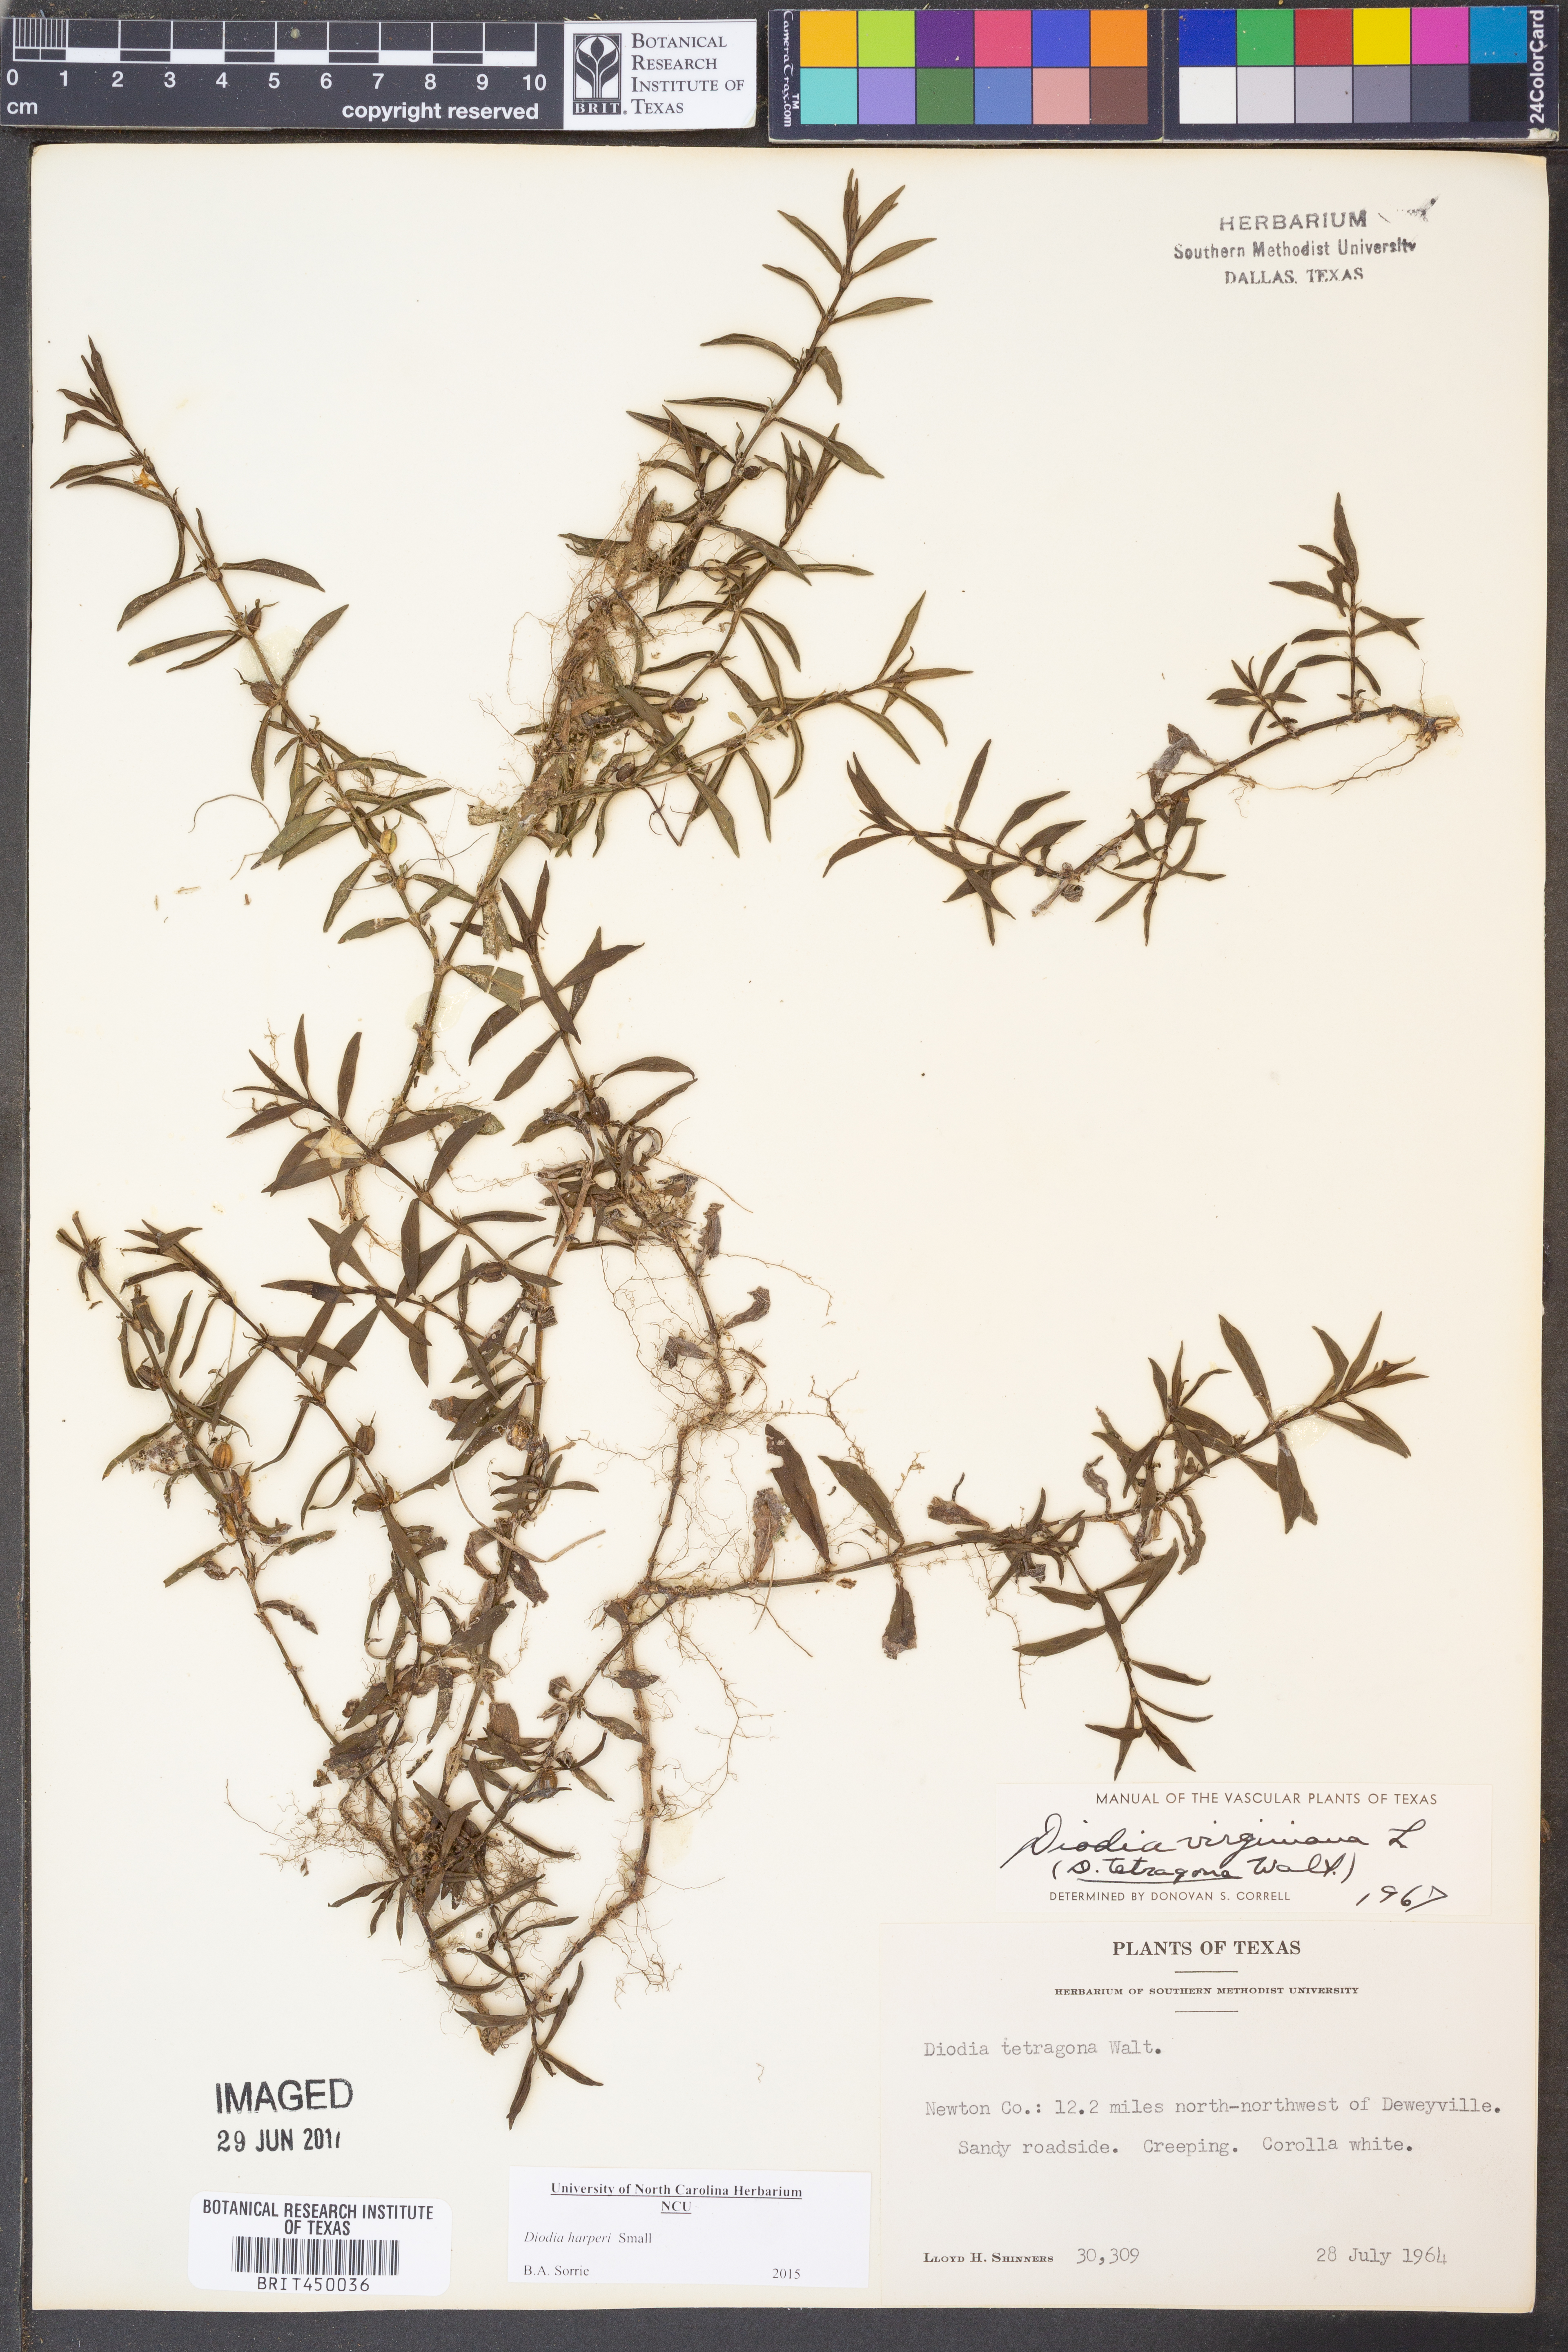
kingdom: Plantae
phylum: Tracheophyta
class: Magnoliopsida
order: Gentianales
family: Rubiaceae
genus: Diodia
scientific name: Diodia virginiana
